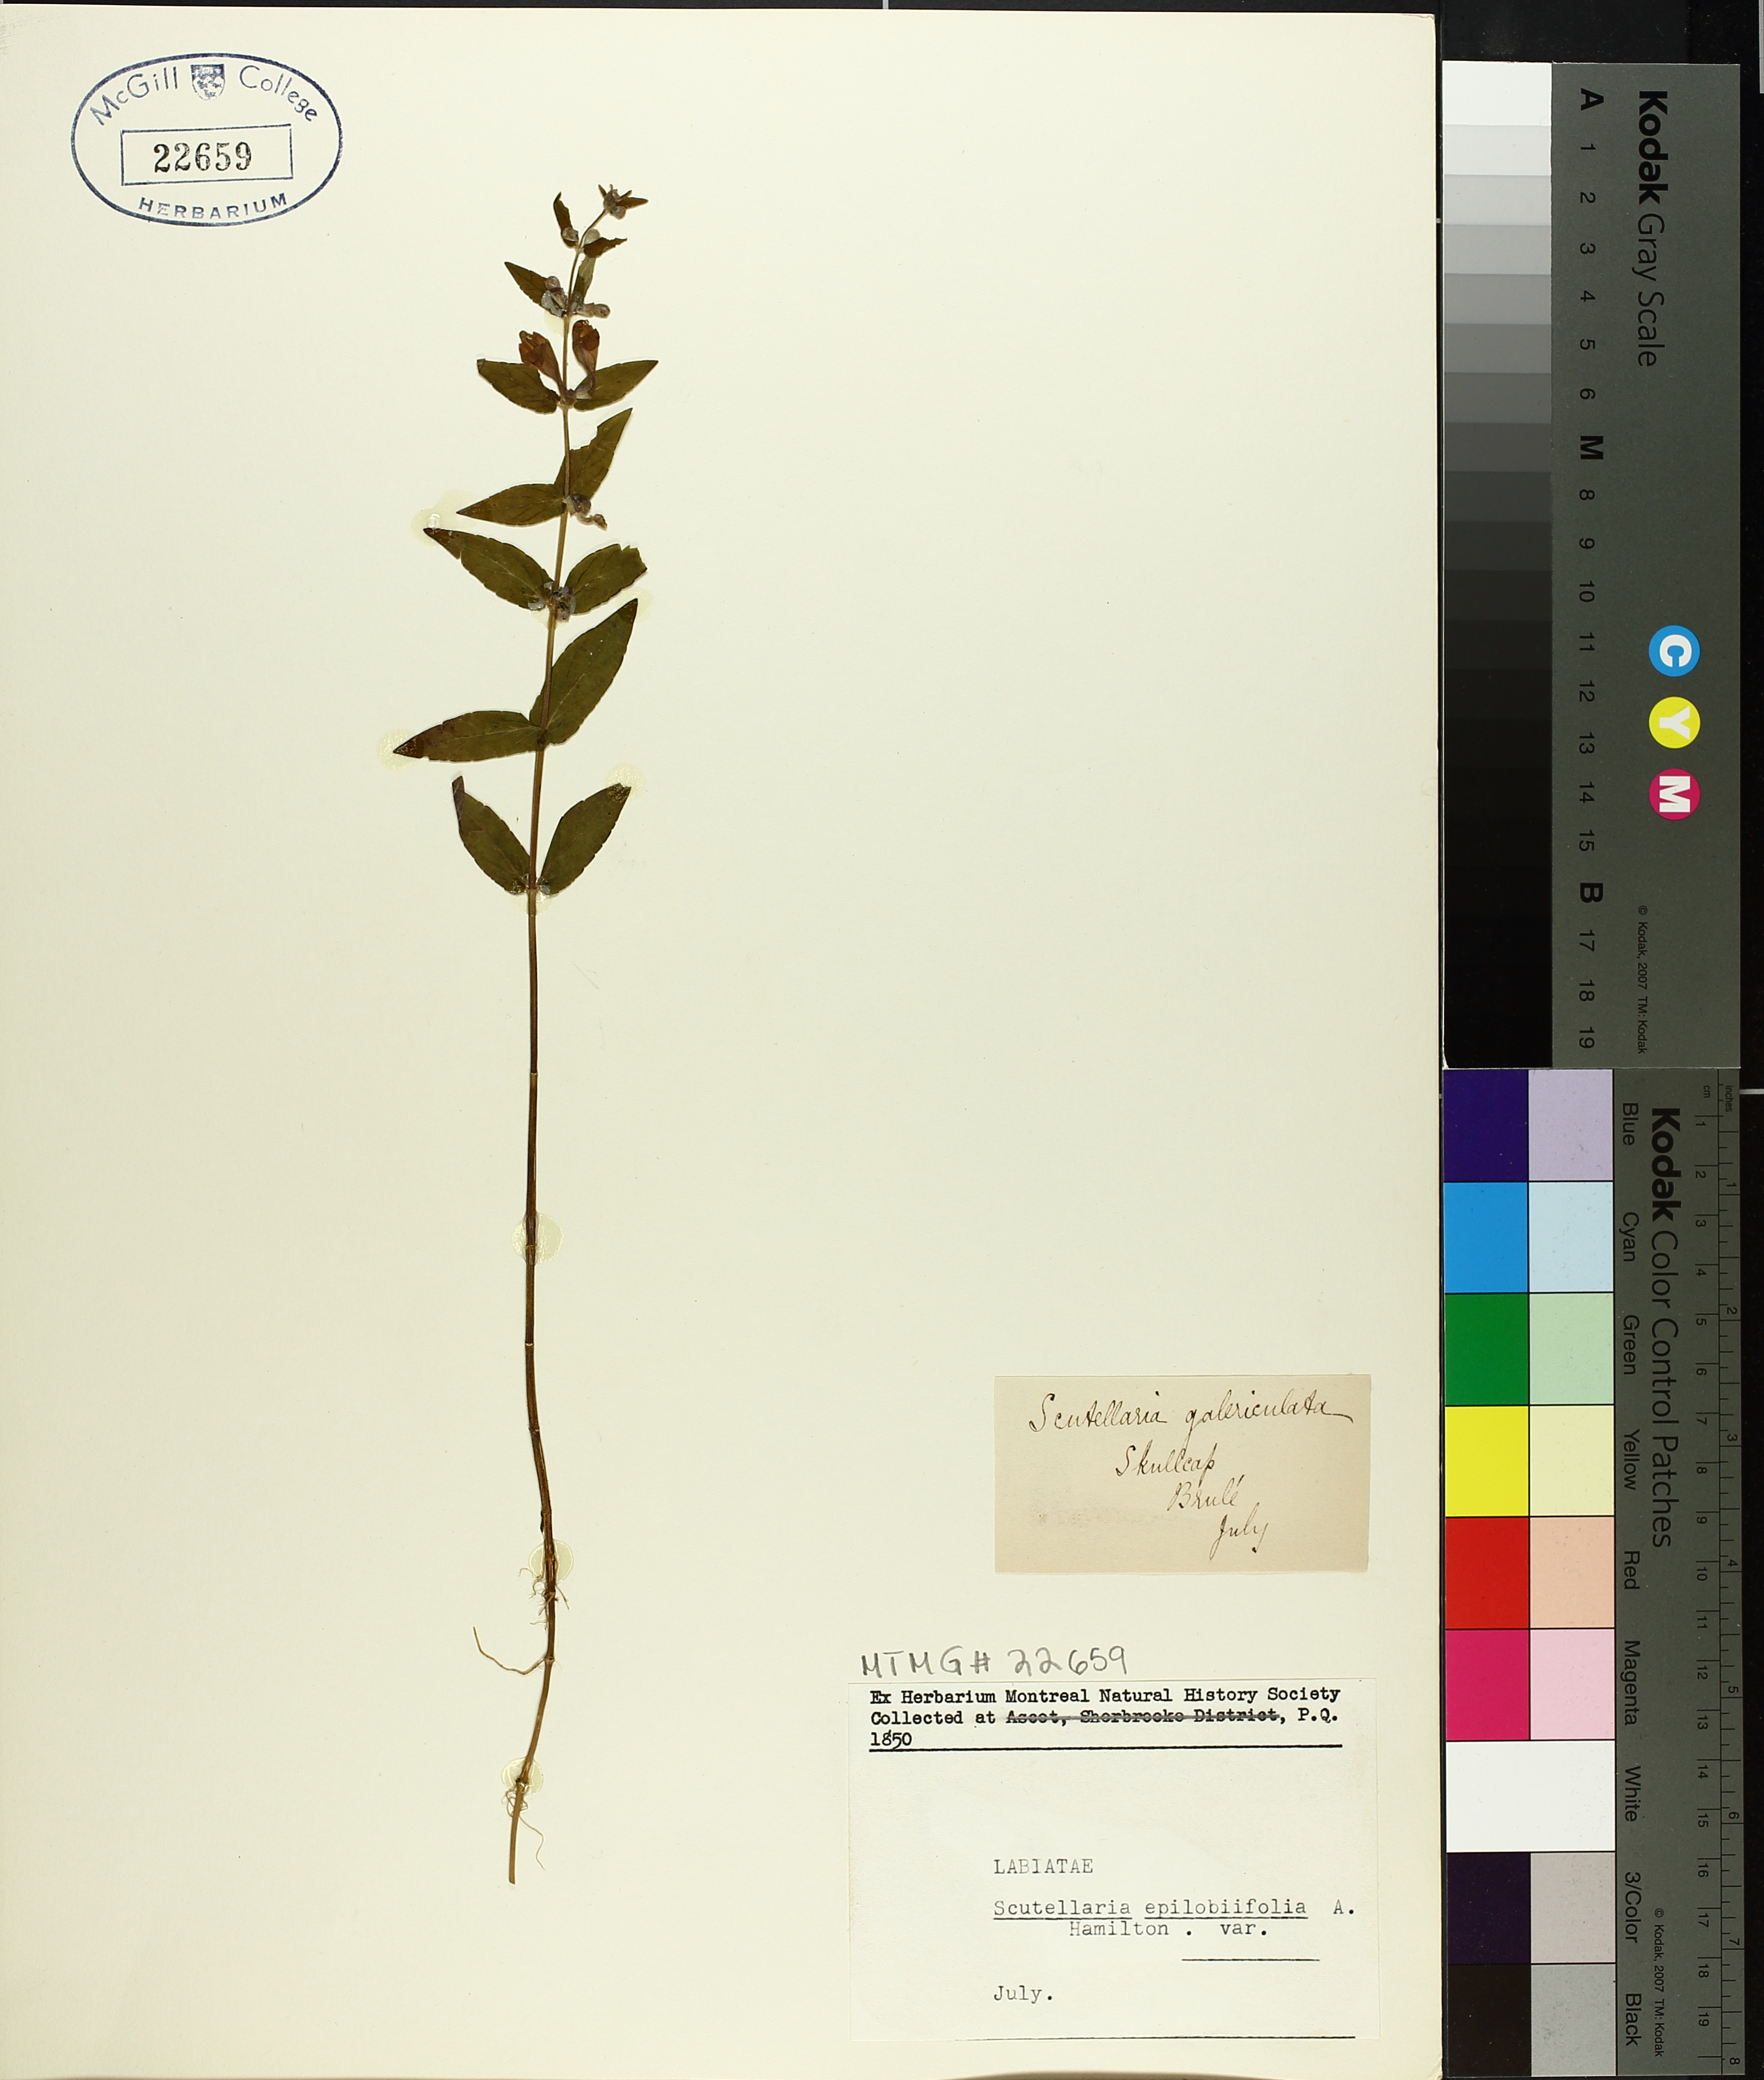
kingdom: Plantae
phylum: Tracheophyta
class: Magnoliopsida
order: Lamiales
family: Lamiaceae
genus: Scutellaria
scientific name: Scutellaria galericulata
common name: Skullcap
